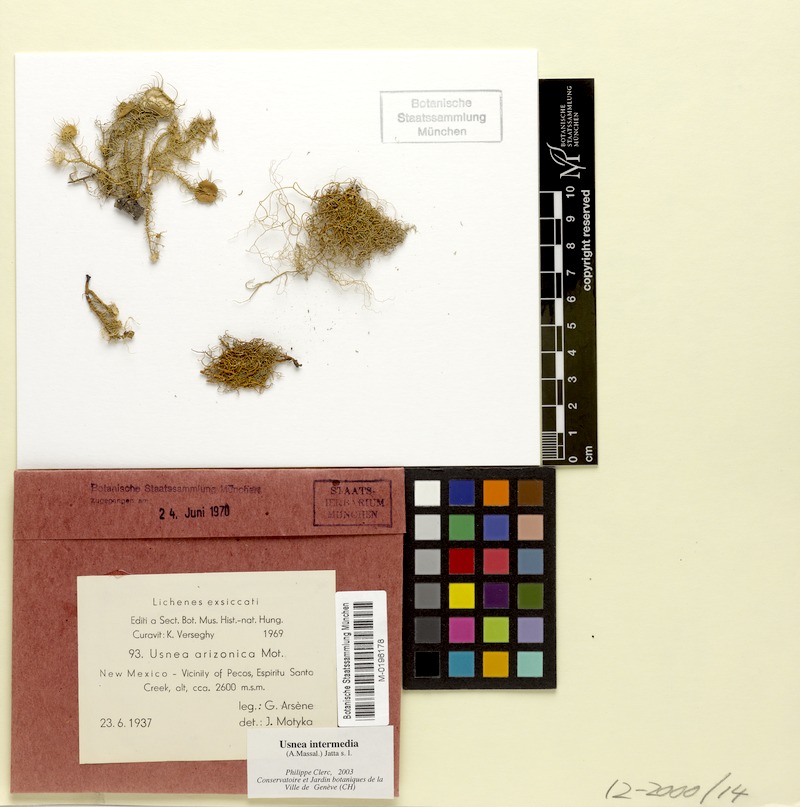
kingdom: Fungi
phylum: Ascomycota
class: Lecanoromycetes
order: Lecanorales
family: Parmeliaceae
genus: Usnea
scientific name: Usnea intermedia
